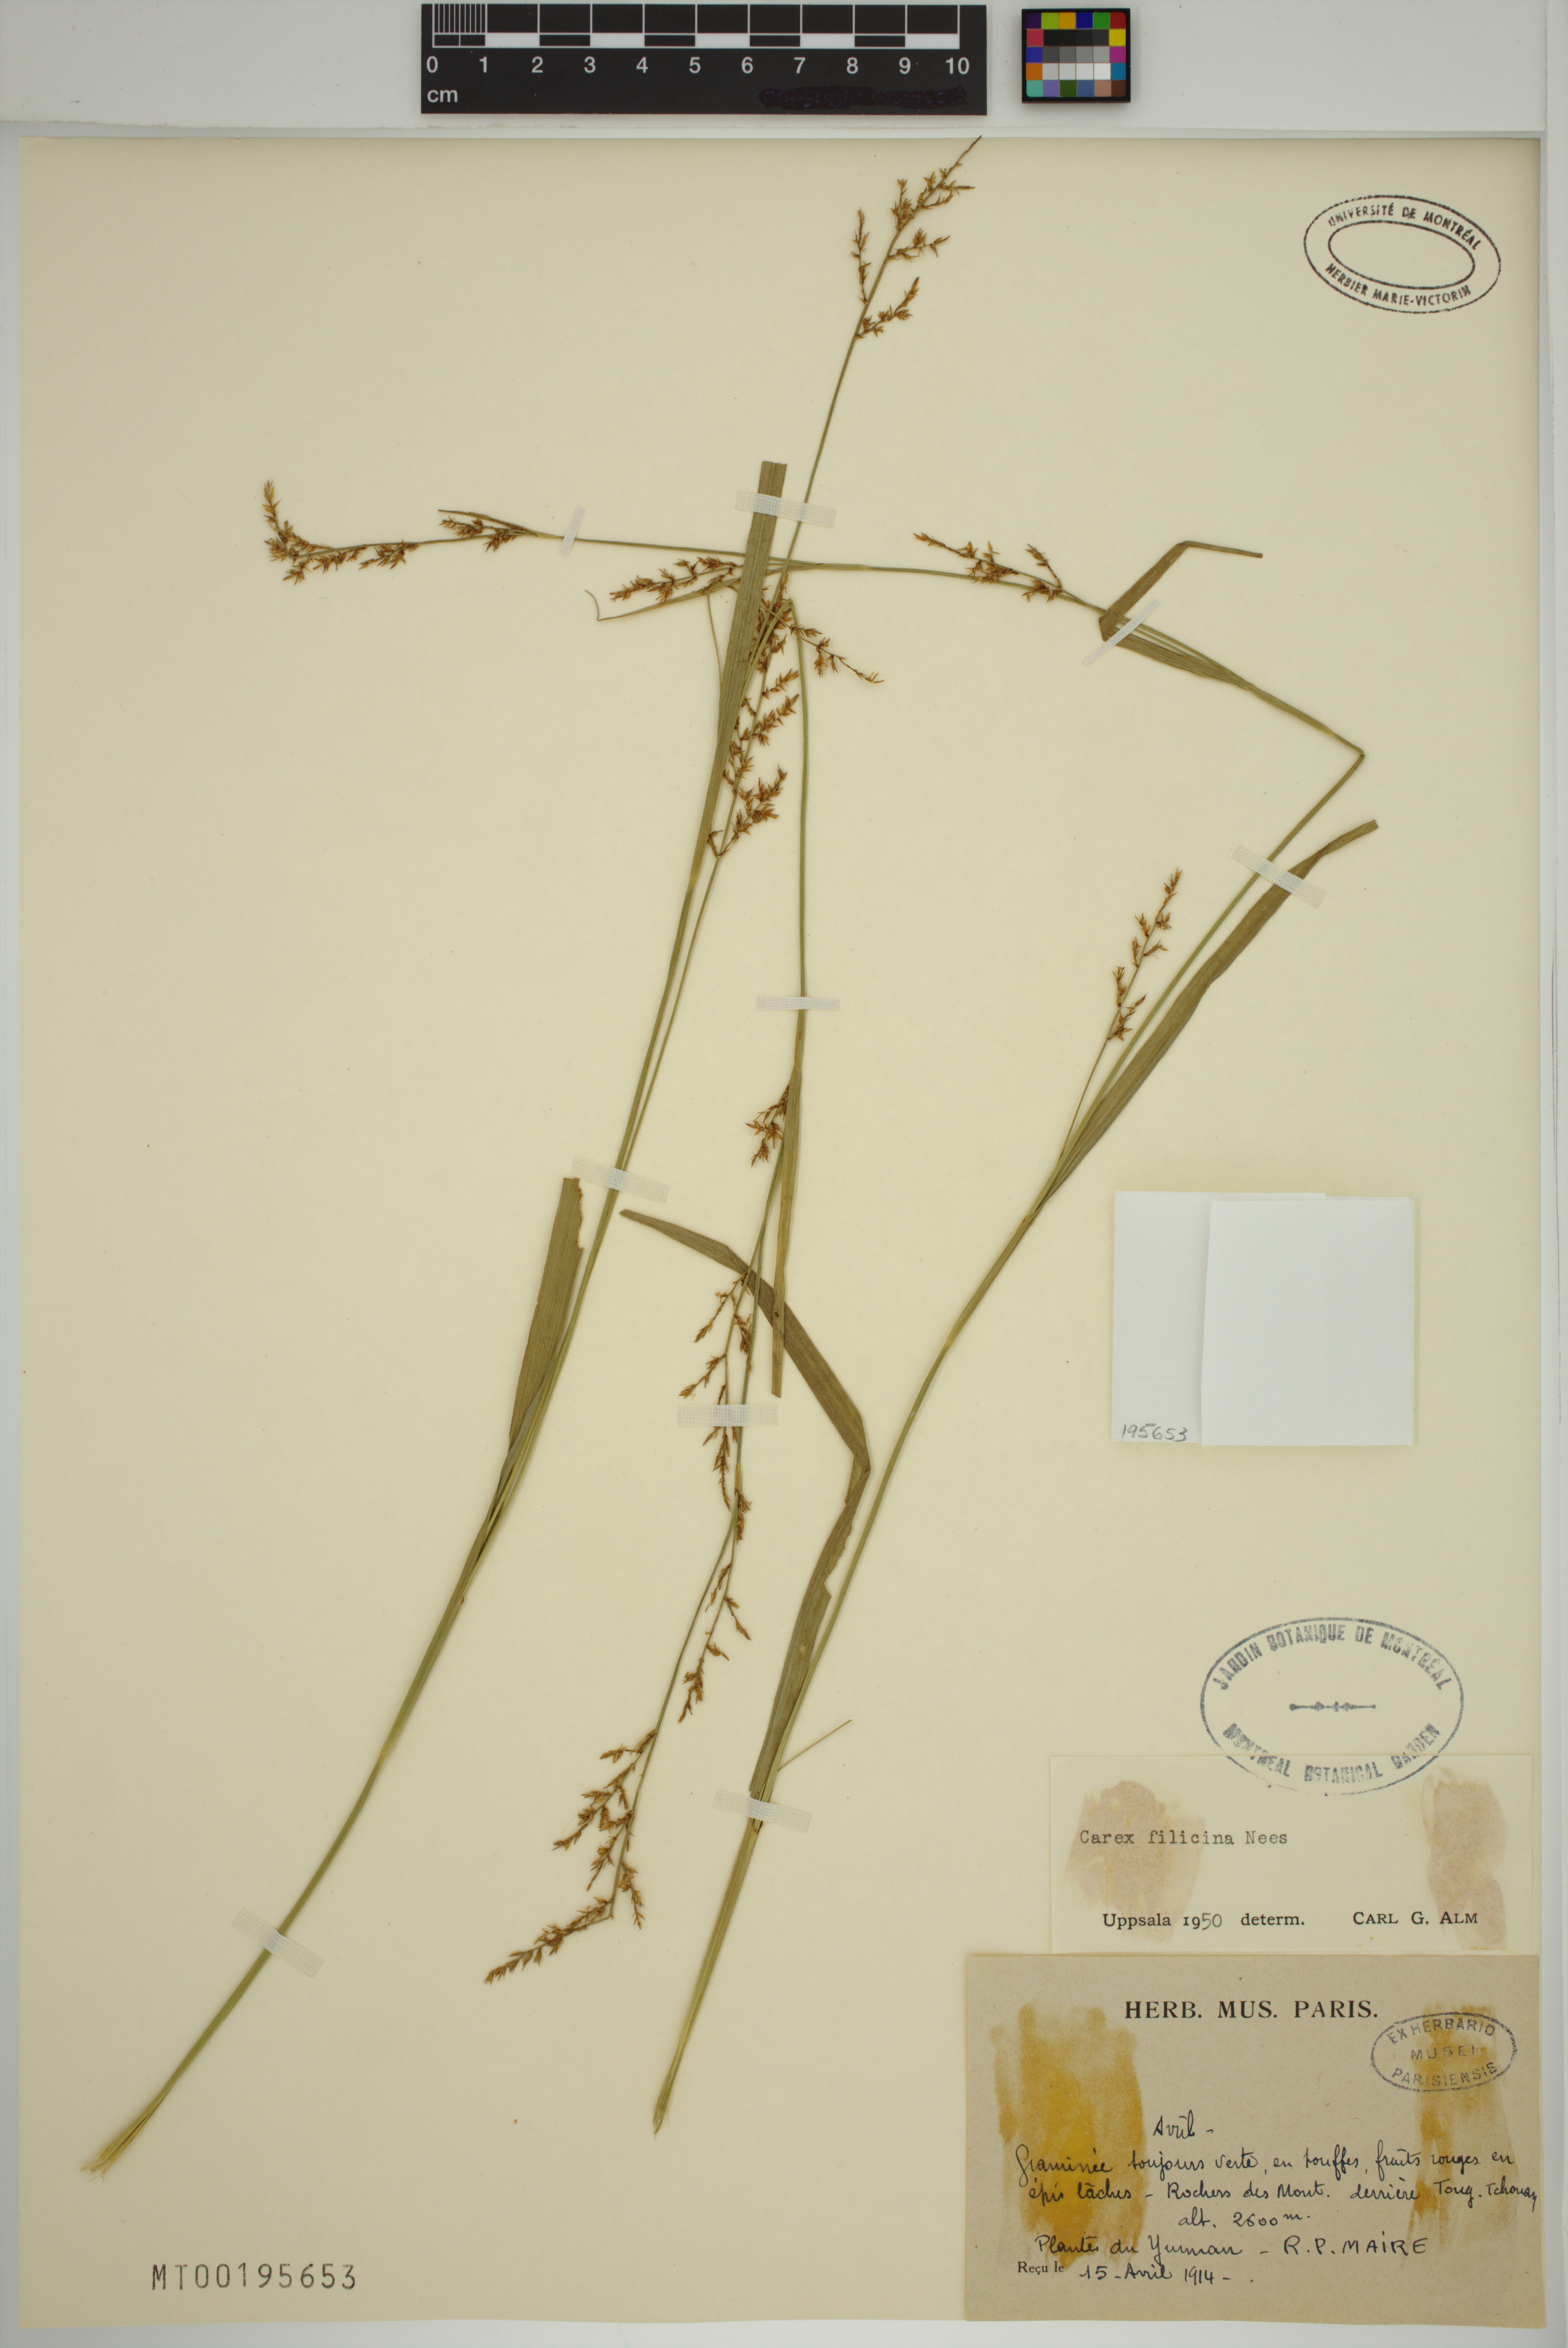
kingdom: Plantae
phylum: Tracheophyta
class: Liliopsida
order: Poales
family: Cyperaceae
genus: Carex
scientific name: Carex filicina
